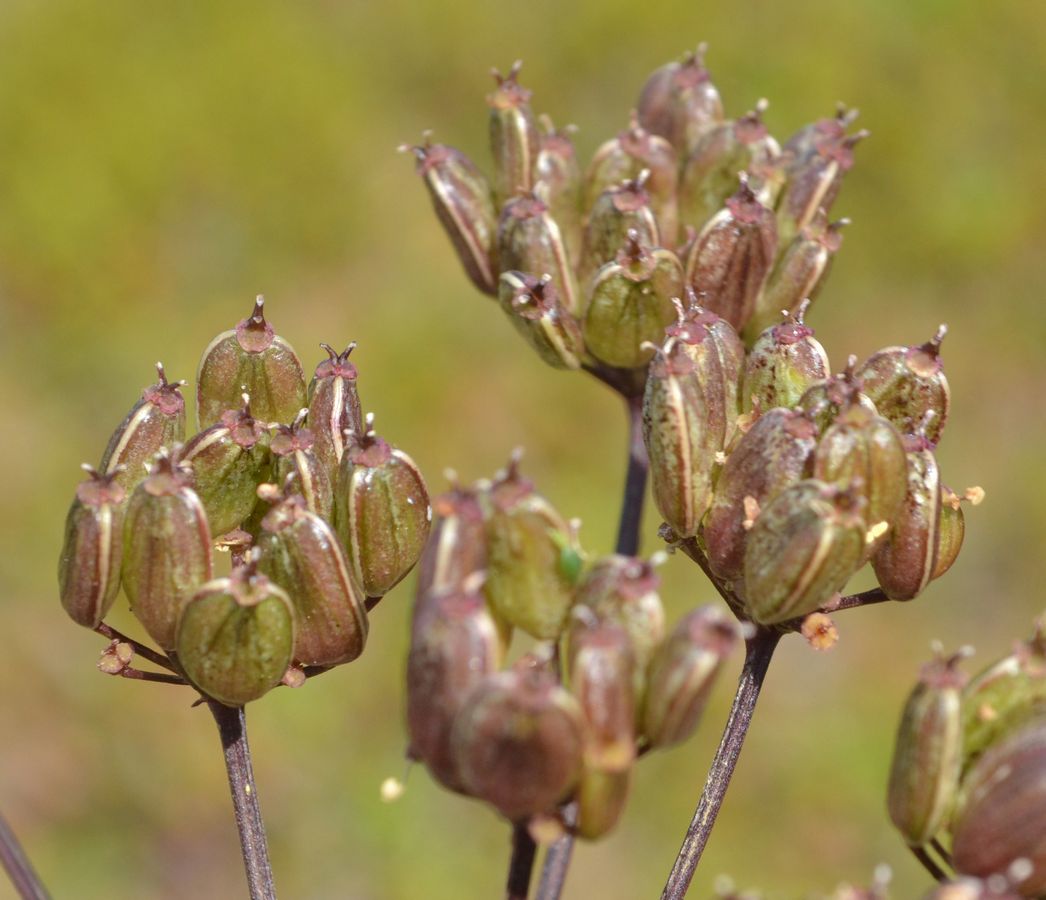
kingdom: Plantae
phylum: Tracheophyta
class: Magnoliopsida
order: Apiales
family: Apiaceae
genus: Heracleum
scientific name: Heracleum sphondylium
